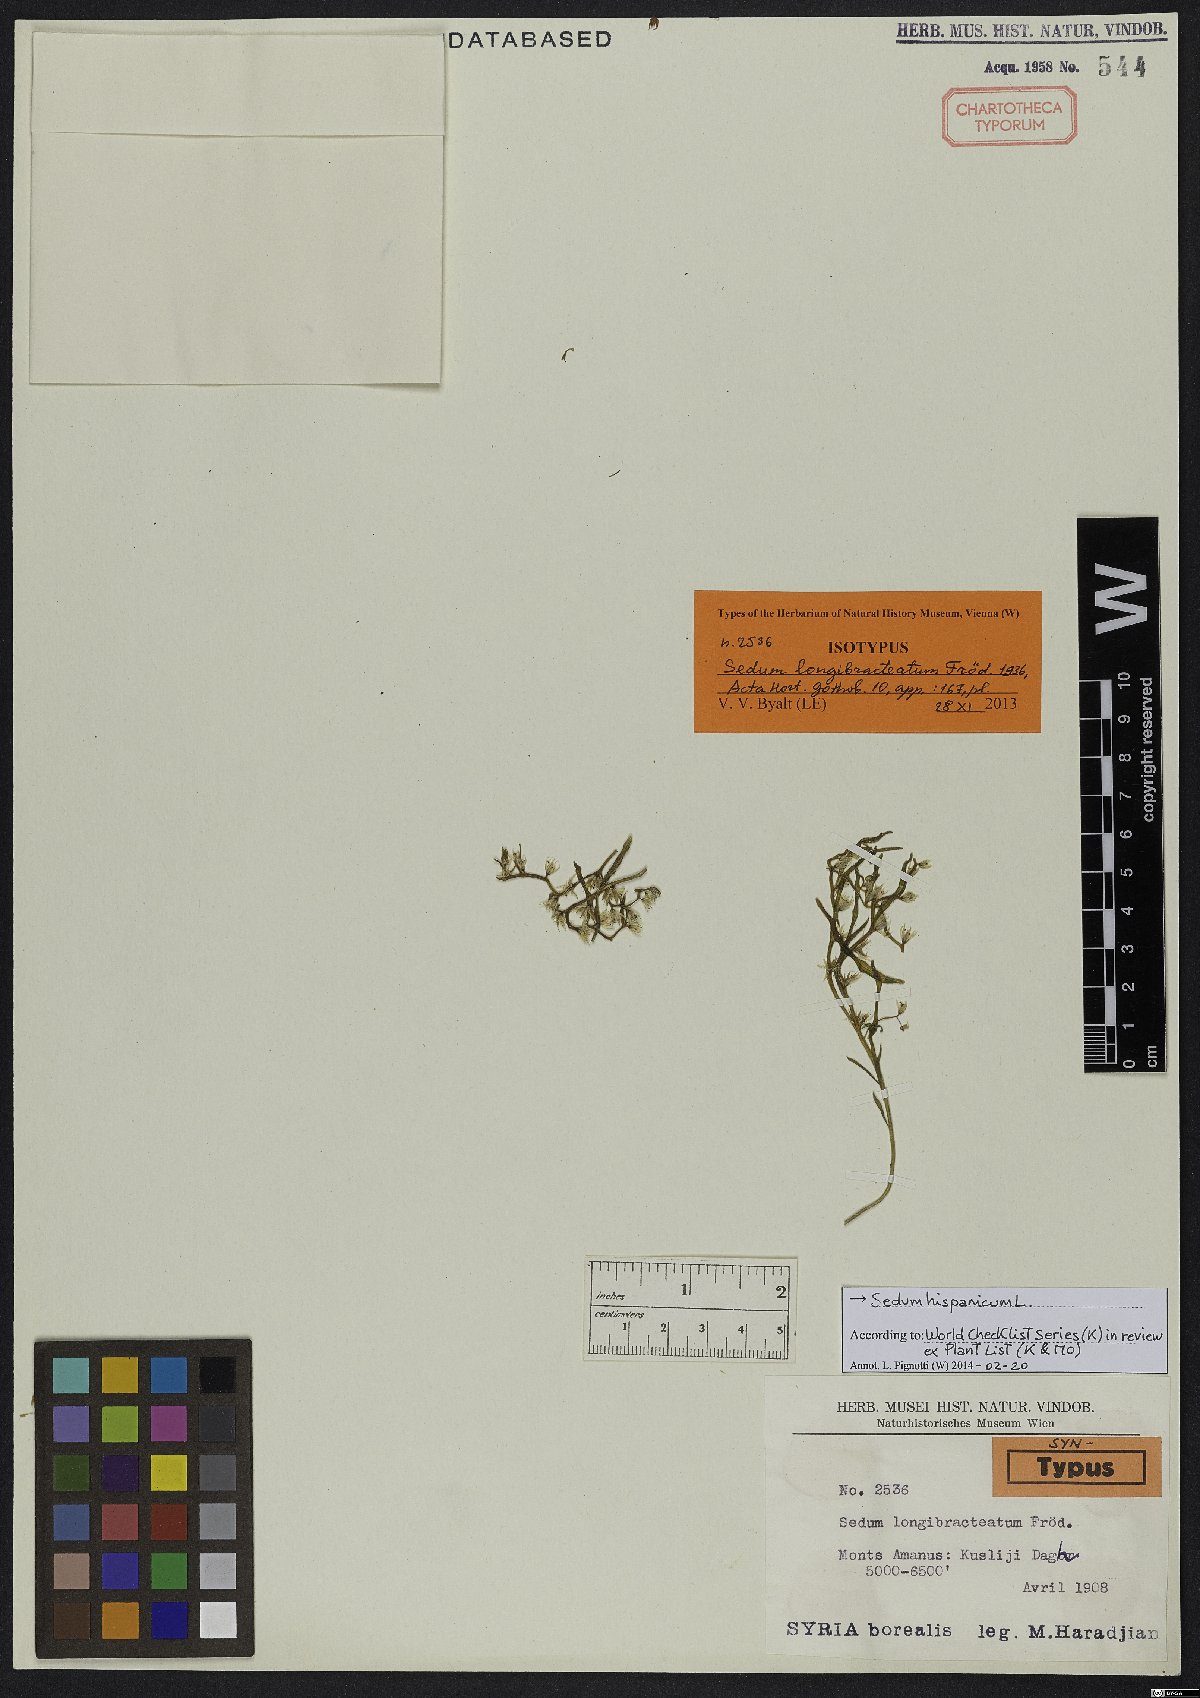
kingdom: Plantae
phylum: Tracheophyta
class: Magnoliopsida
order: Saxifragales
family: Crassulaceae
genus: Sedum
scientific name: Sedum hispanicum
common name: Spanish stonecrop
